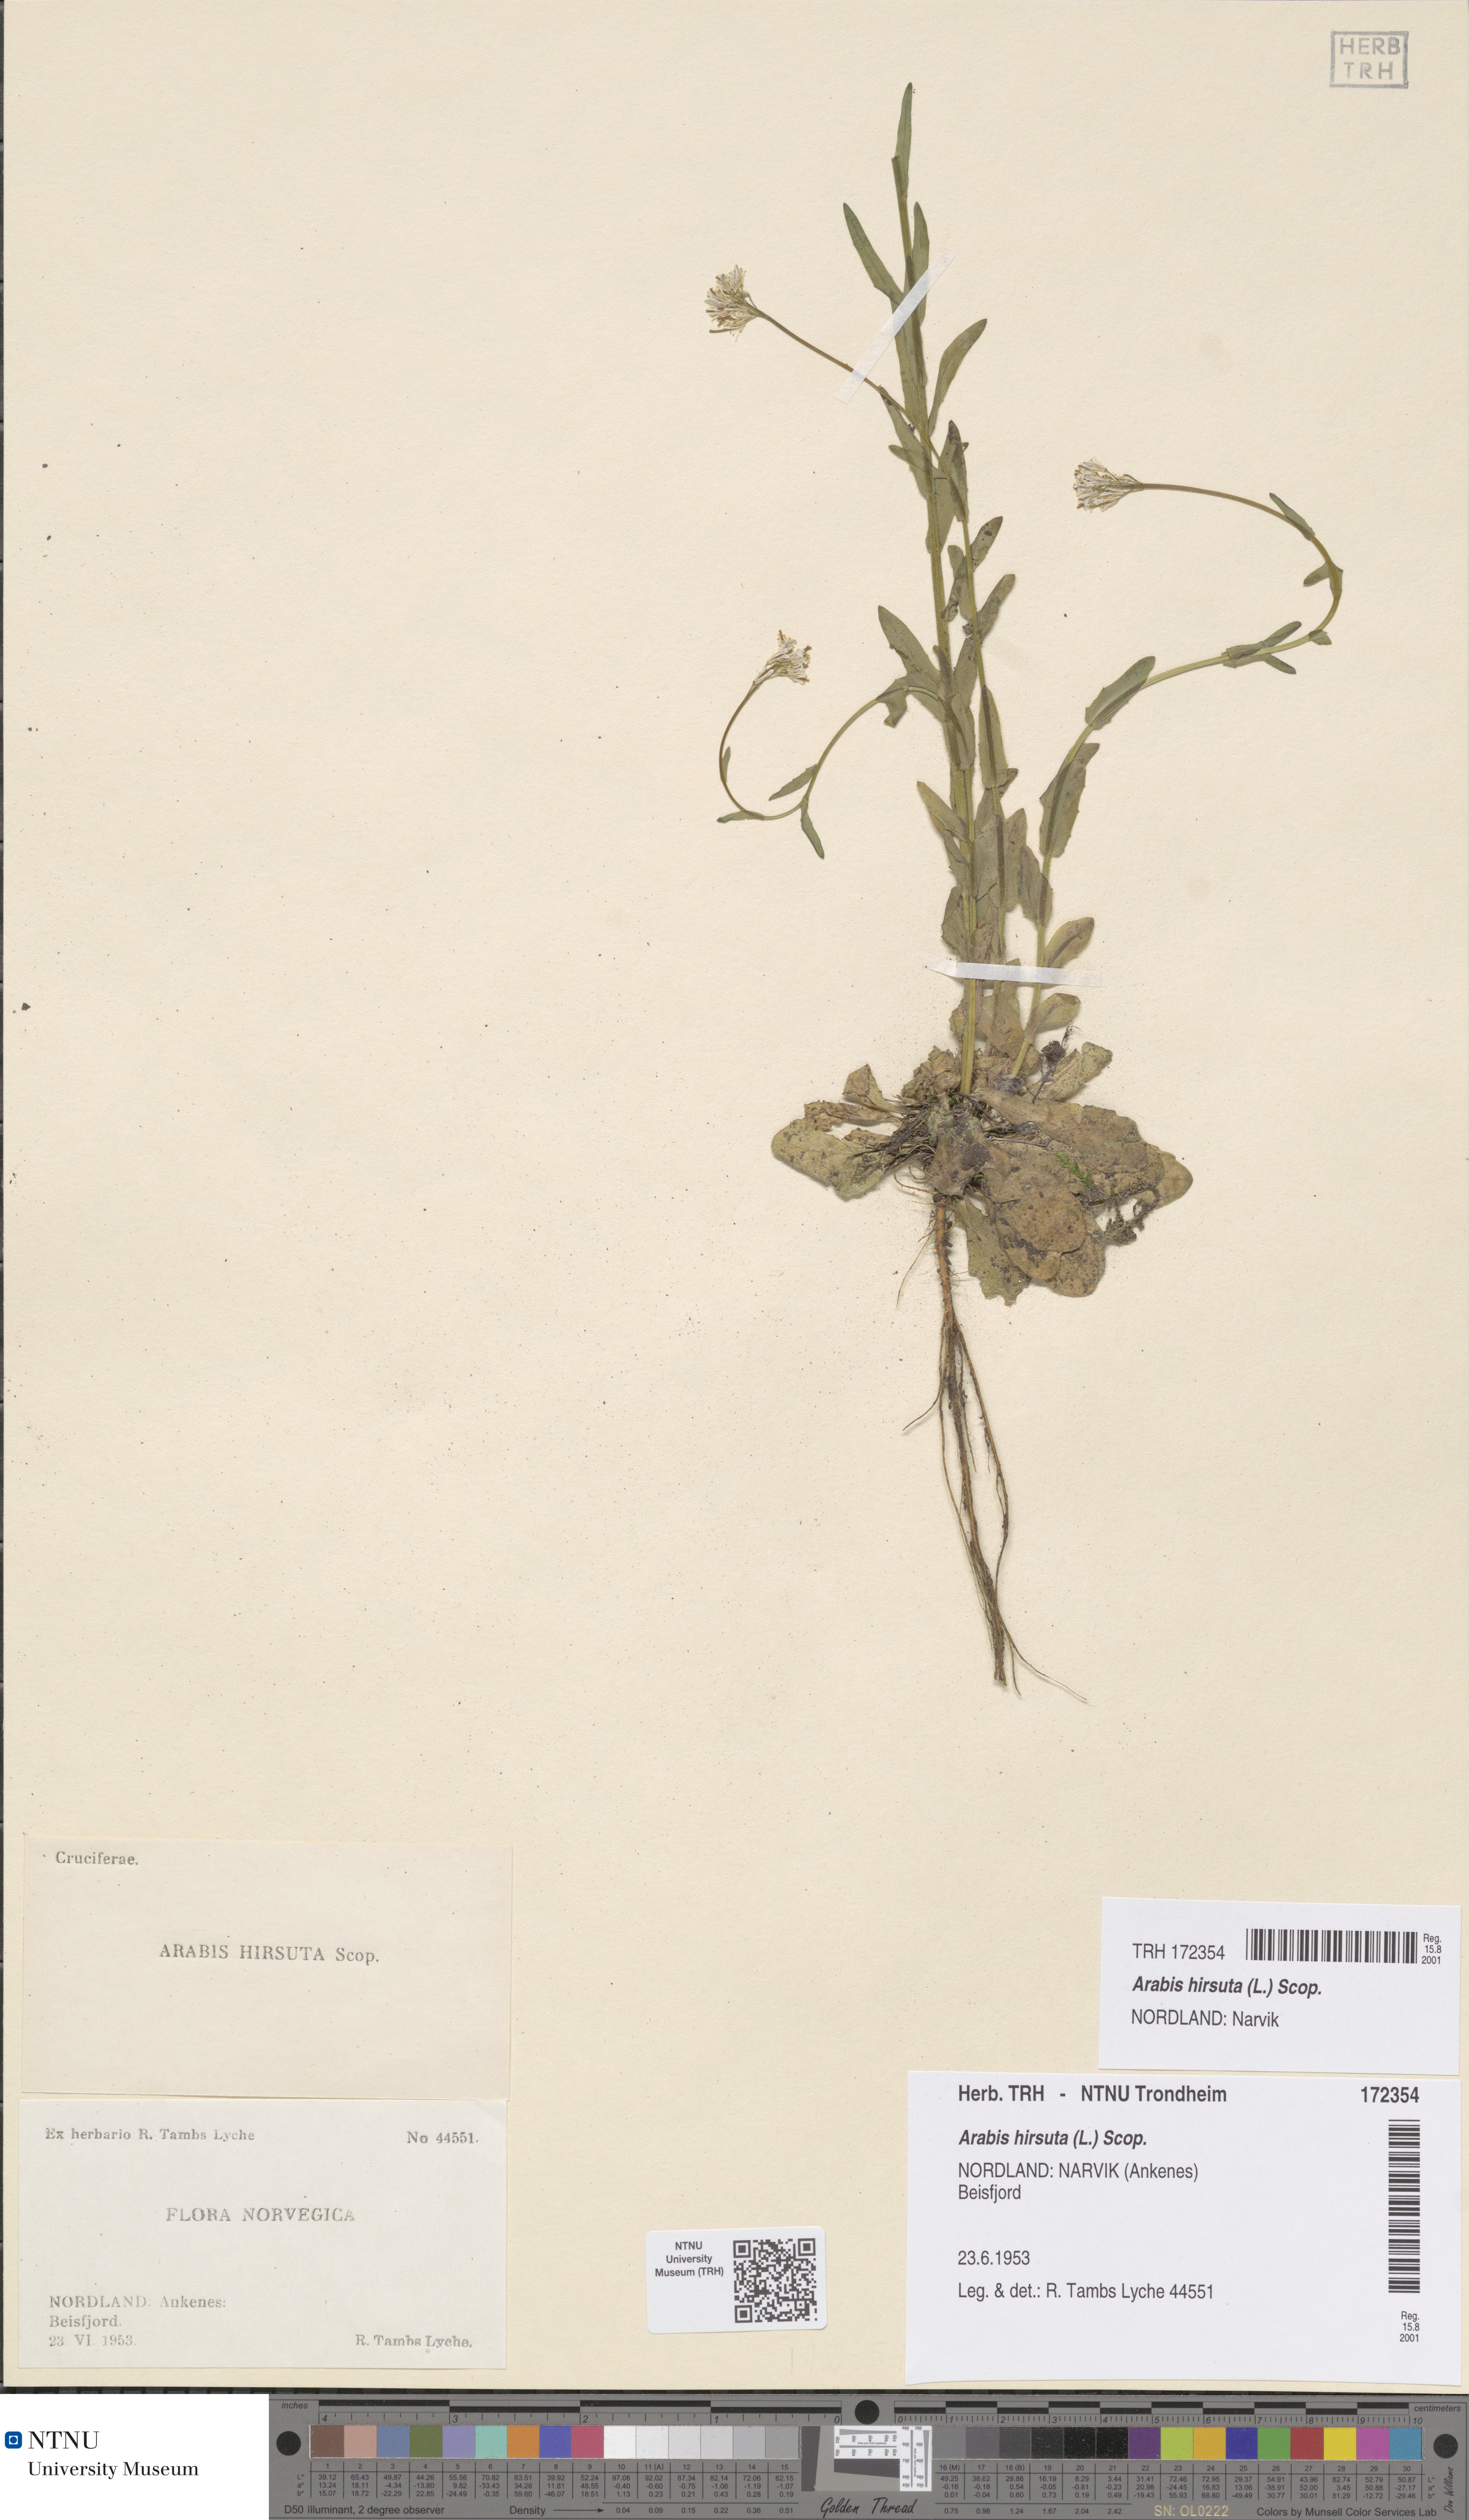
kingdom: Plantae
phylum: Tracheophyta
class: Magnoliopsida
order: Brassicales
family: Brassicaceae
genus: Arabis
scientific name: Arabis hirsuta
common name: Hairy rock-cress
